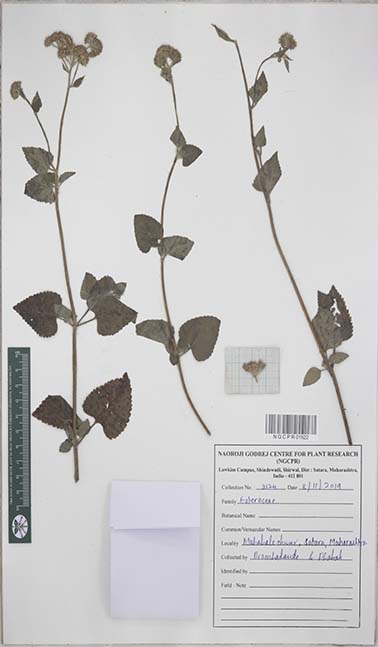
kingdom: Plantae
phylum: Tracheophyta
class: Magnoliopsida
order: Asterales
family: Asteraceae
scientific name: Asteraceae
